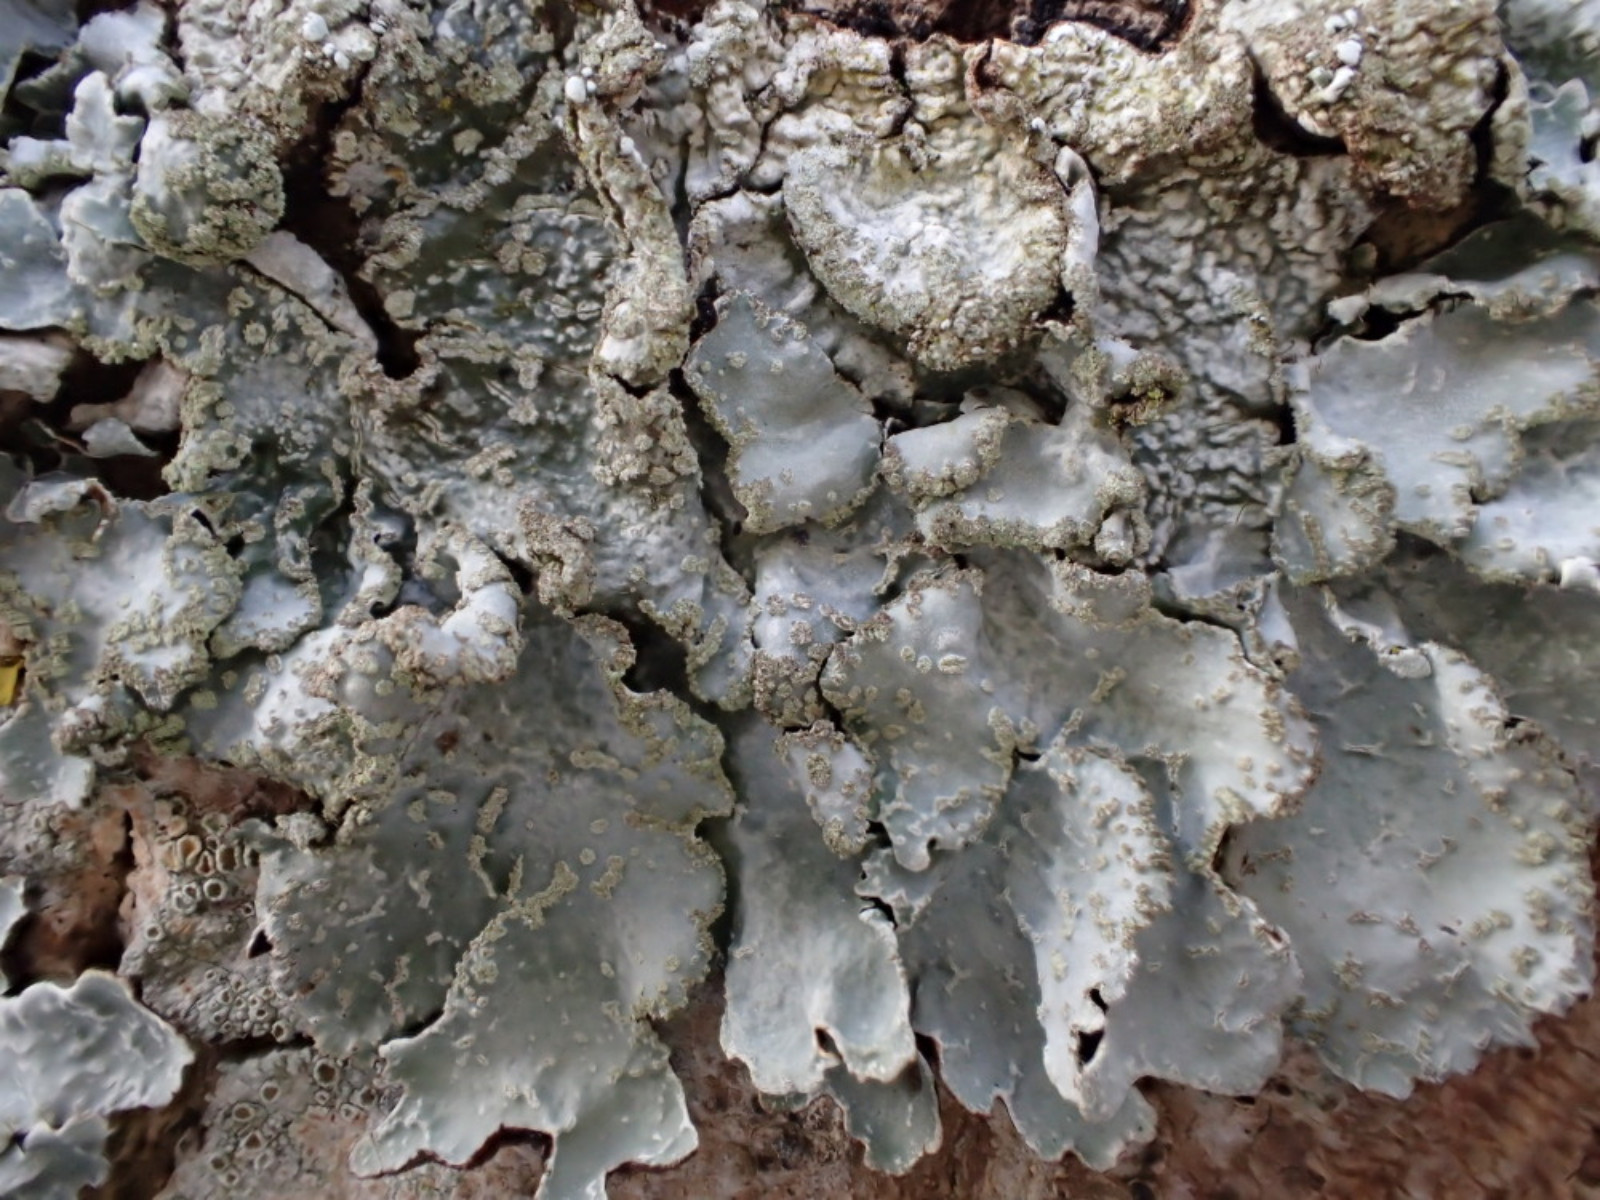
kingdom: Fungi
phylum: Ascomycota
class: Lecanoromycetes
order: Lecanorales
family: Parmeliaceae
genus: Parmelia
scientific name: Parmelia sulcata
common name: rynket skållav
